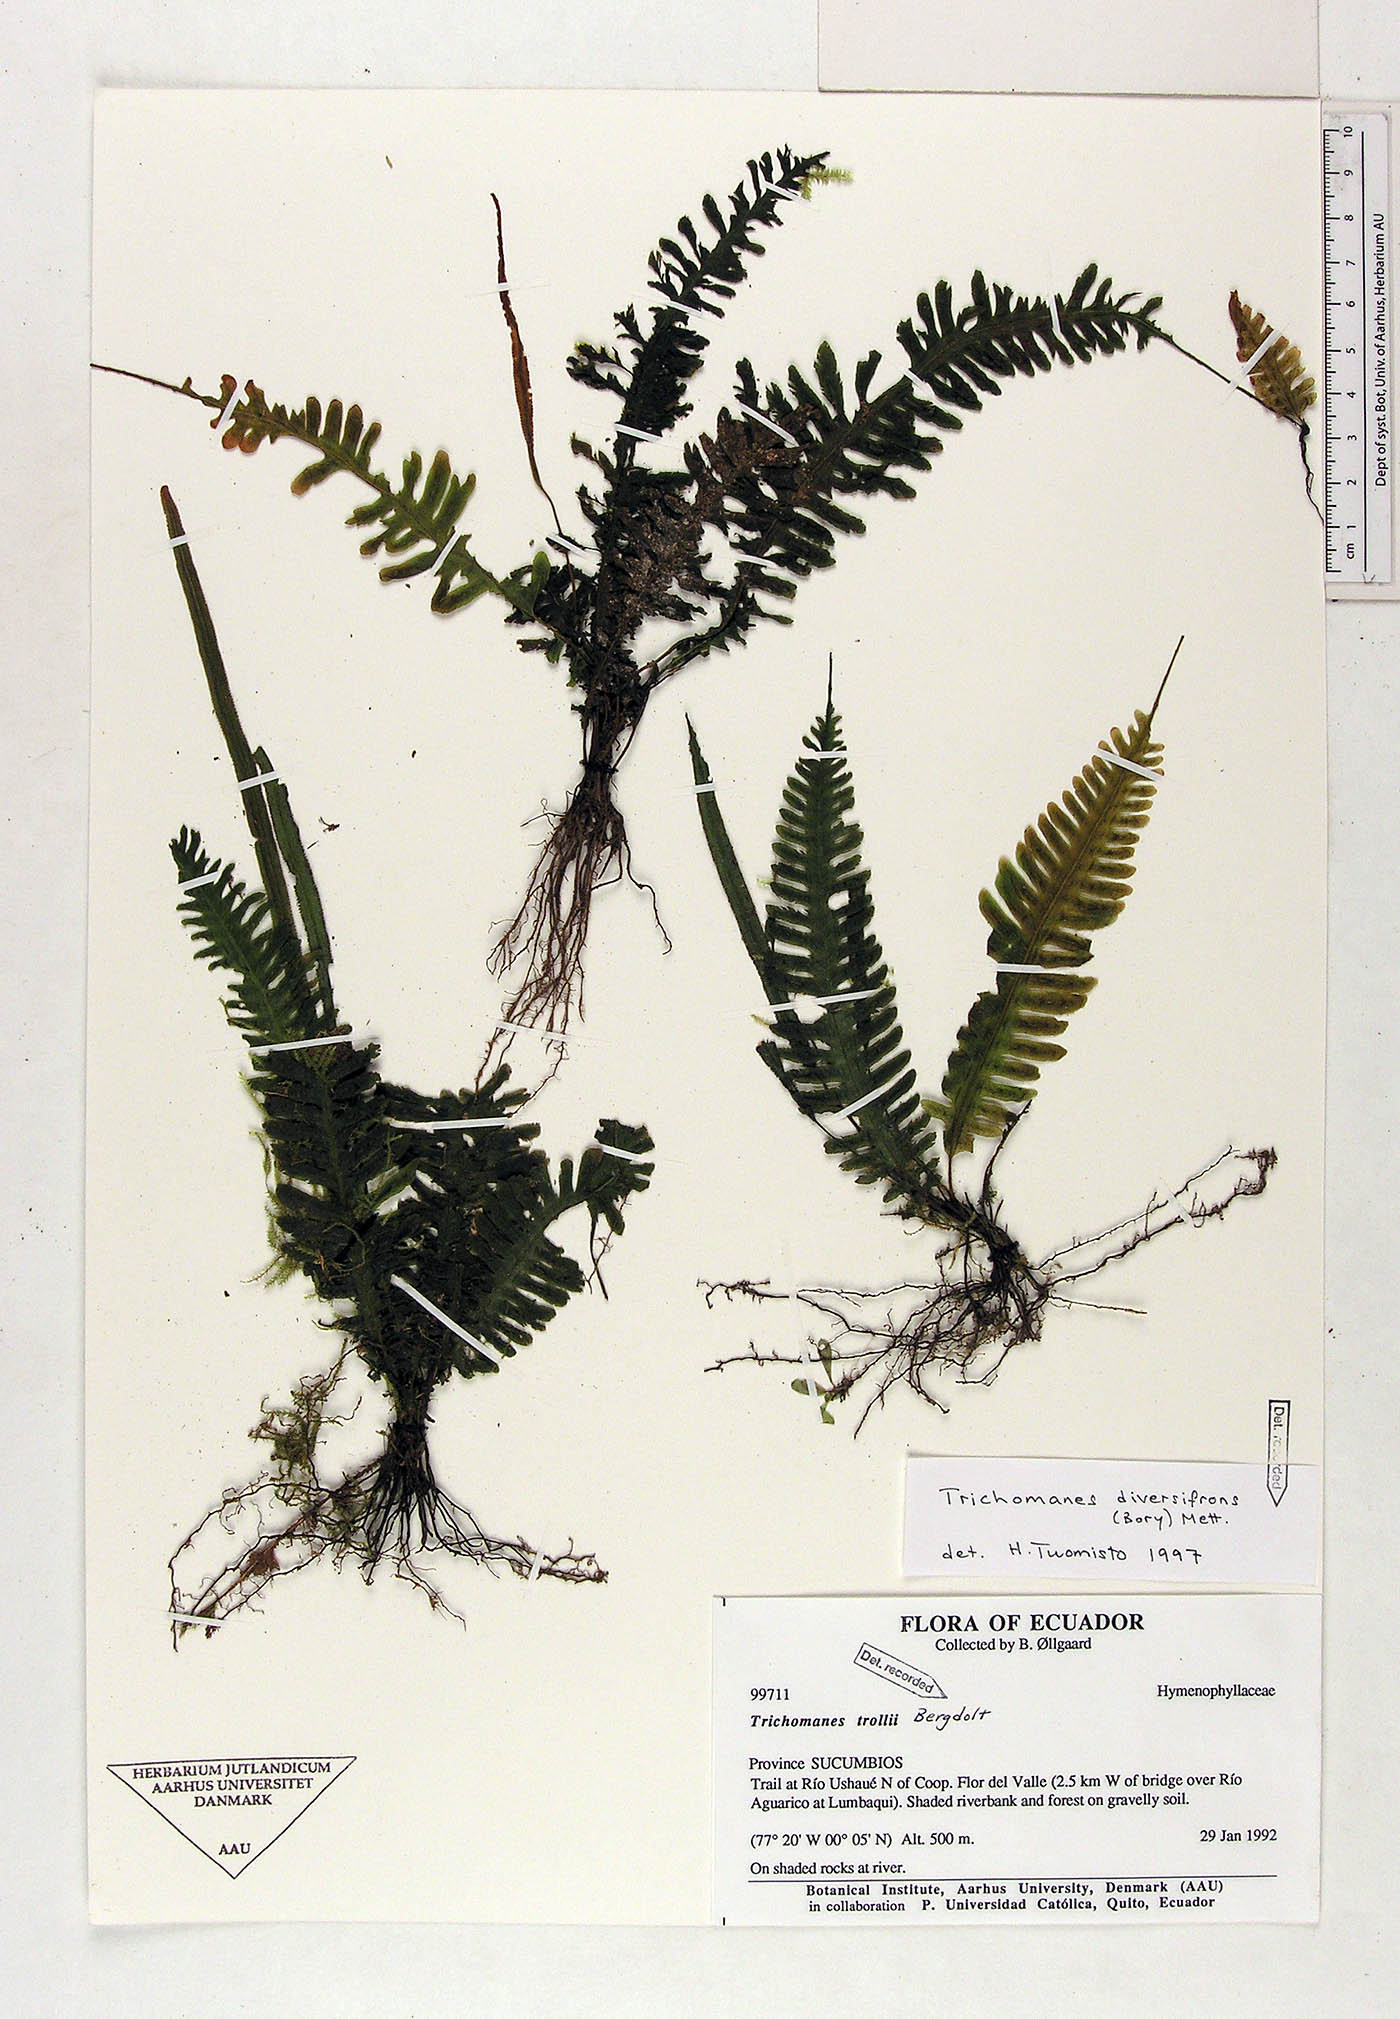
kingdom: Plantae
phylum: Tracheophyta
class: Polypodiopsida
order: Hymenophyllales
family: Hymenophyllaceae
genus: Trichomanes
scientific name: Trichomanes trollii
